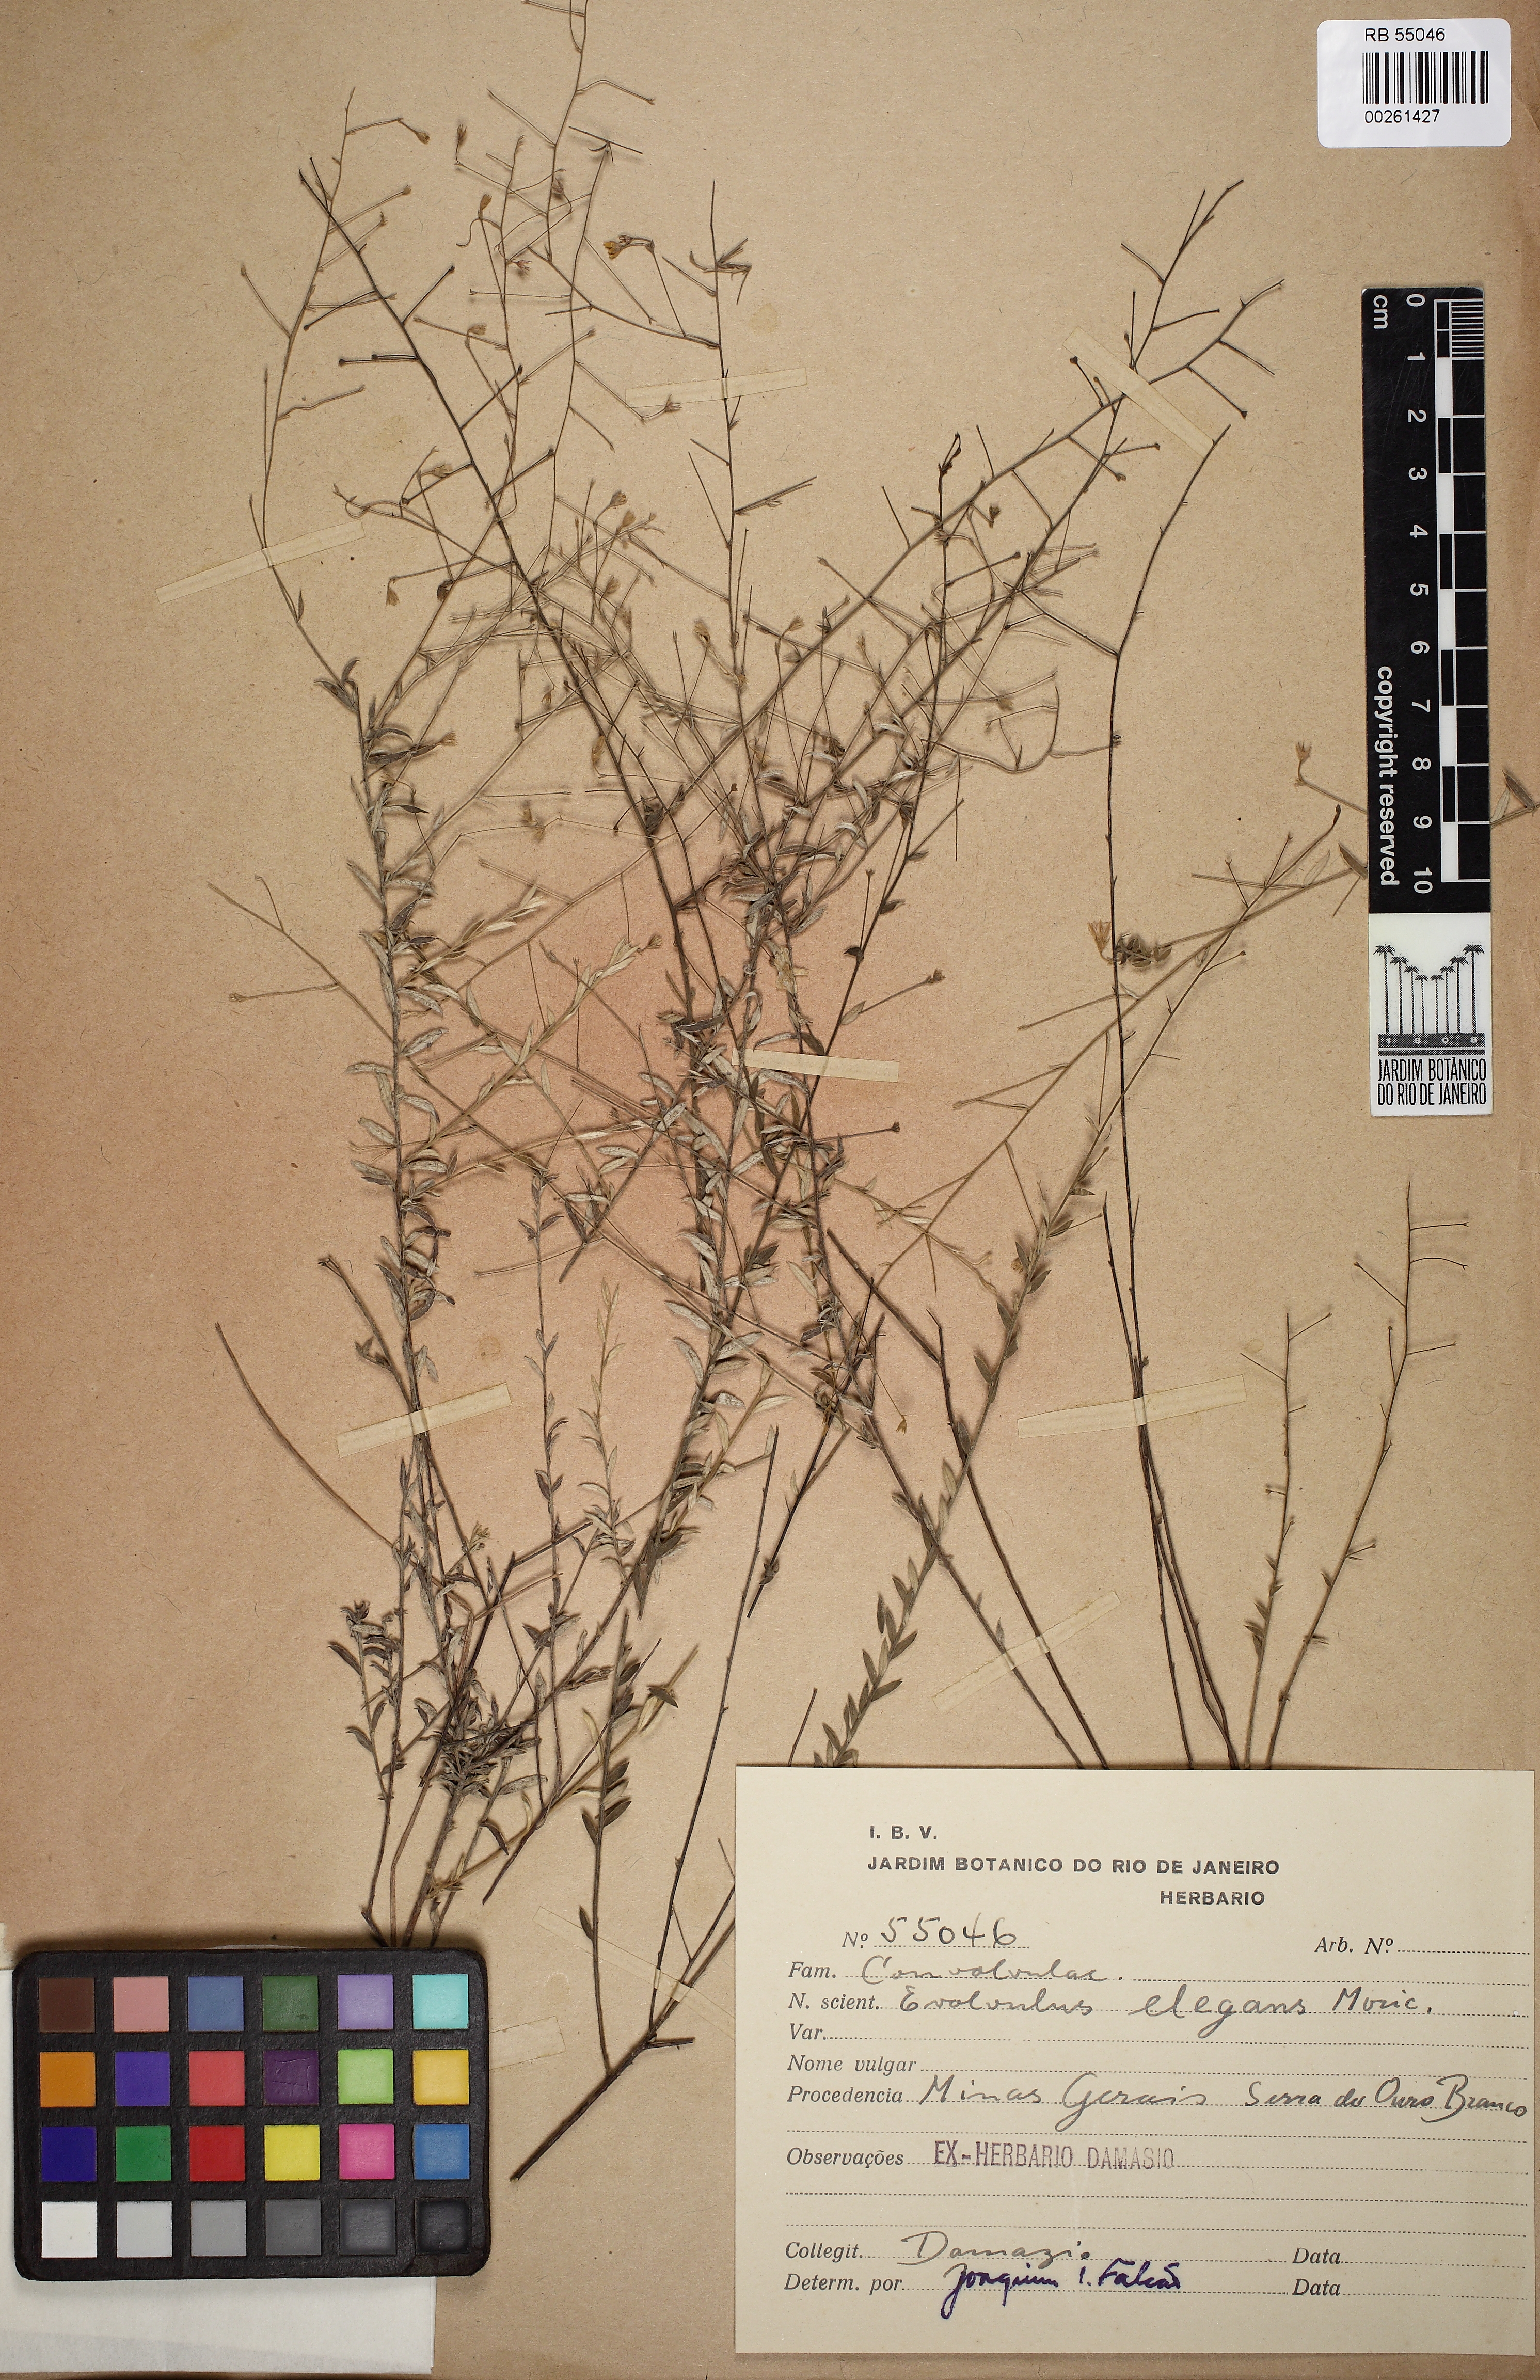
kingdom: Plantae
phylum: Tracheophyta
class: Magnoliopsida
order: Solanales
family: Convolvulaceae
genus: Evolvulus
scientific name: Evolvulus elegans
